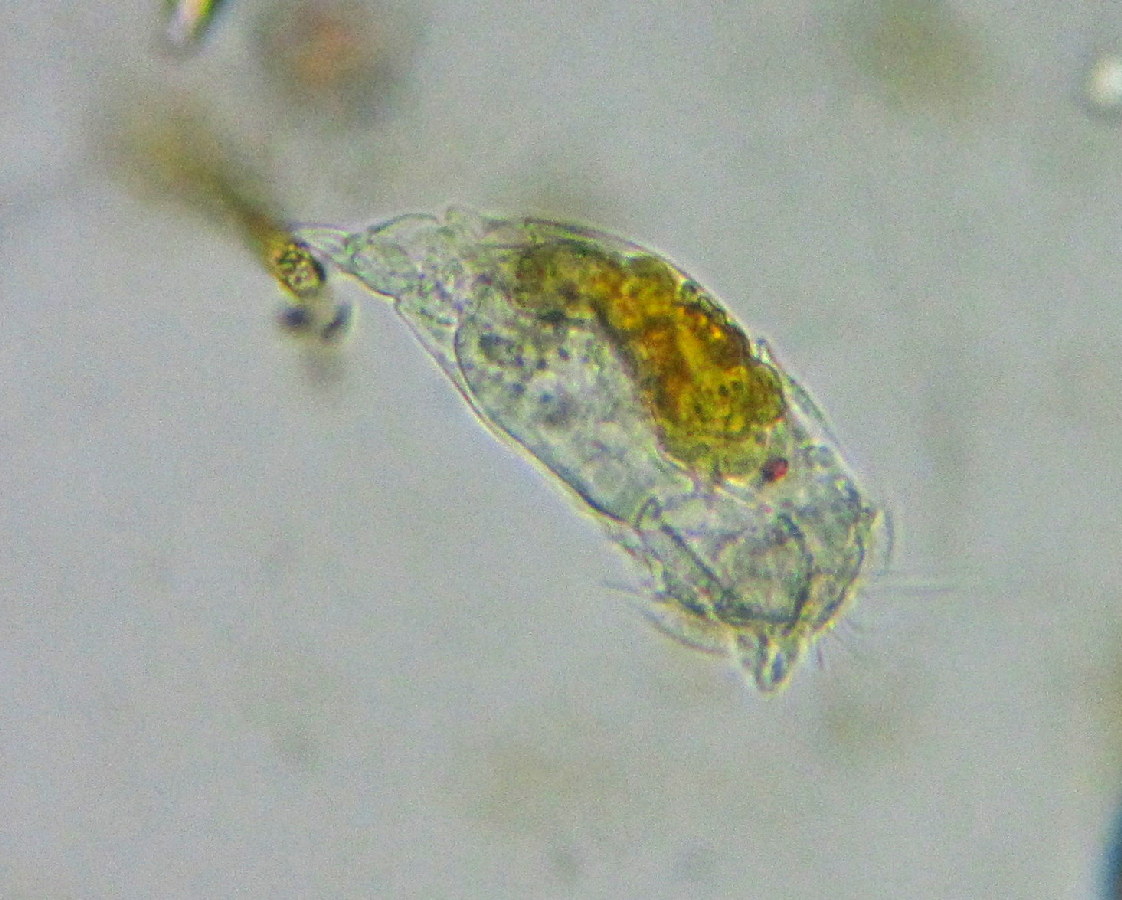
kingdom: Animalia
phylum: Rotifera
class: Eurotatoria
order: Ploima
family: Notommatidae
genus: Cephalodella
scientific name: Cephalodella auriculata
